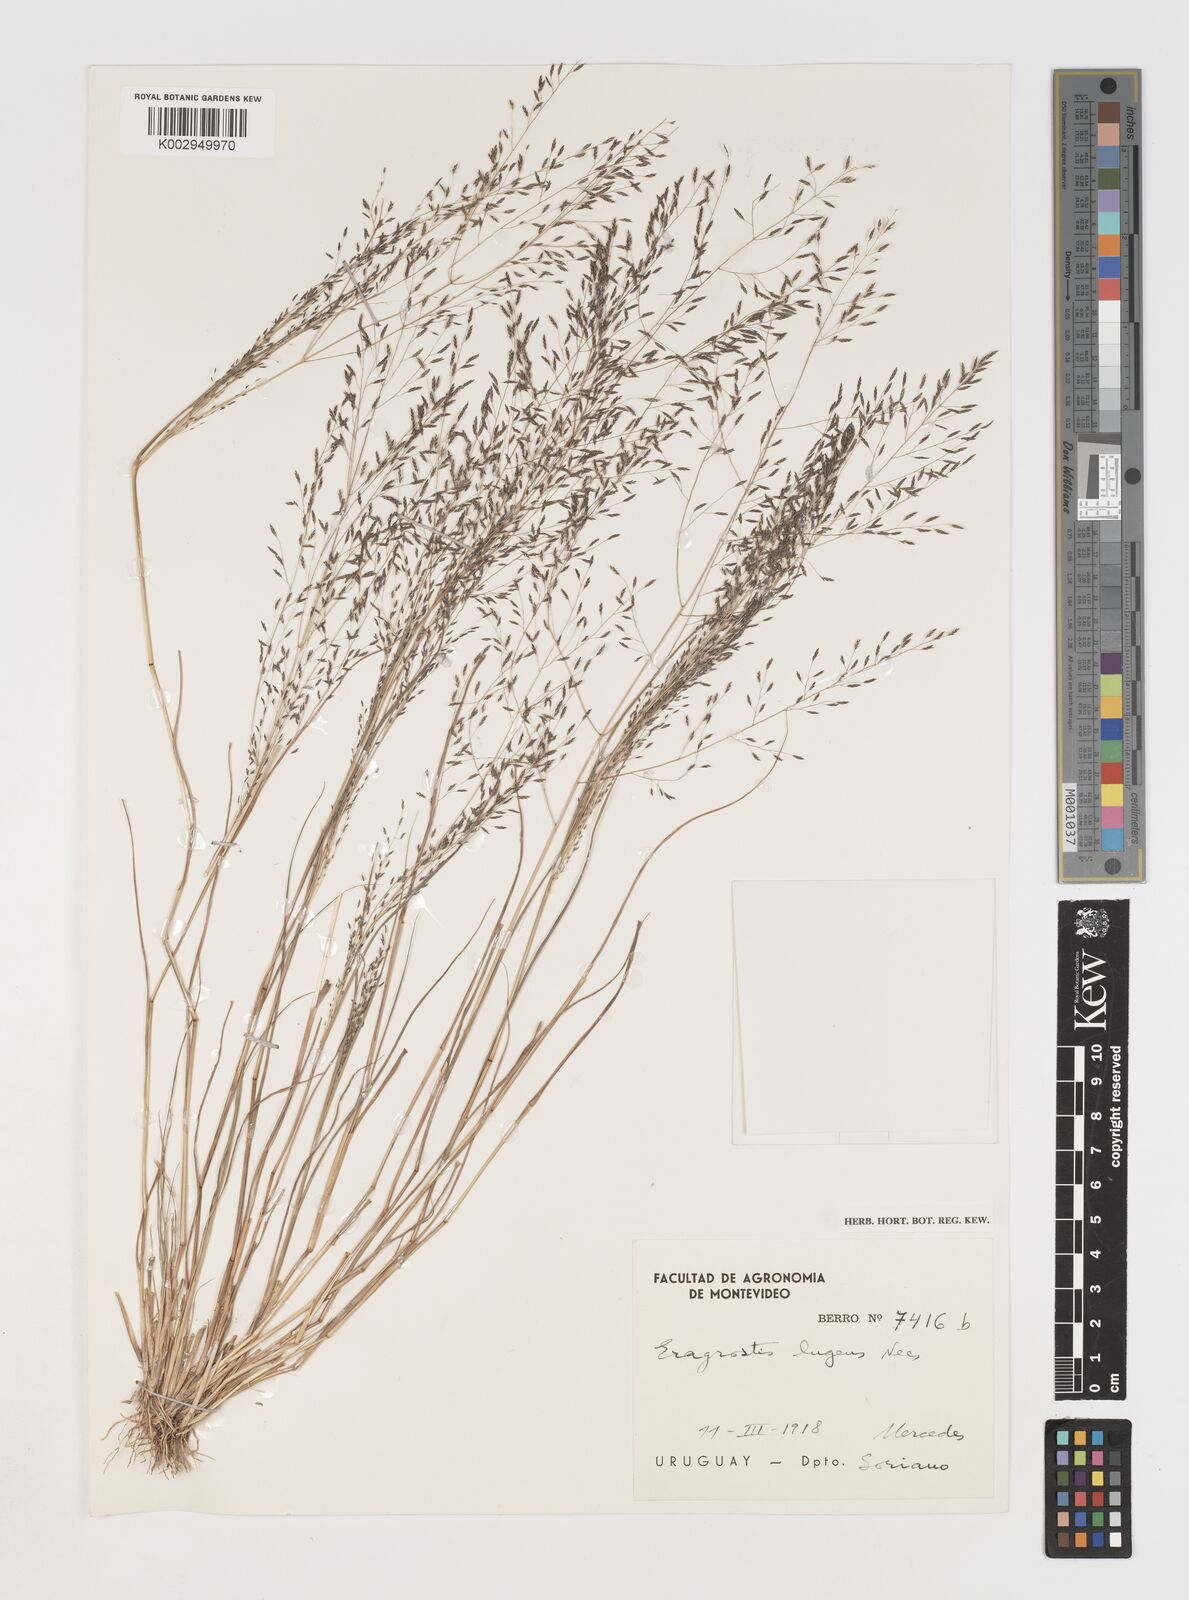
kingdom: Plantae
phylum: Tracheophyta
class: Liliopsida
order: Poales
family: Poaceae
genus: Eragrostis
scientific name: Eragrostis
